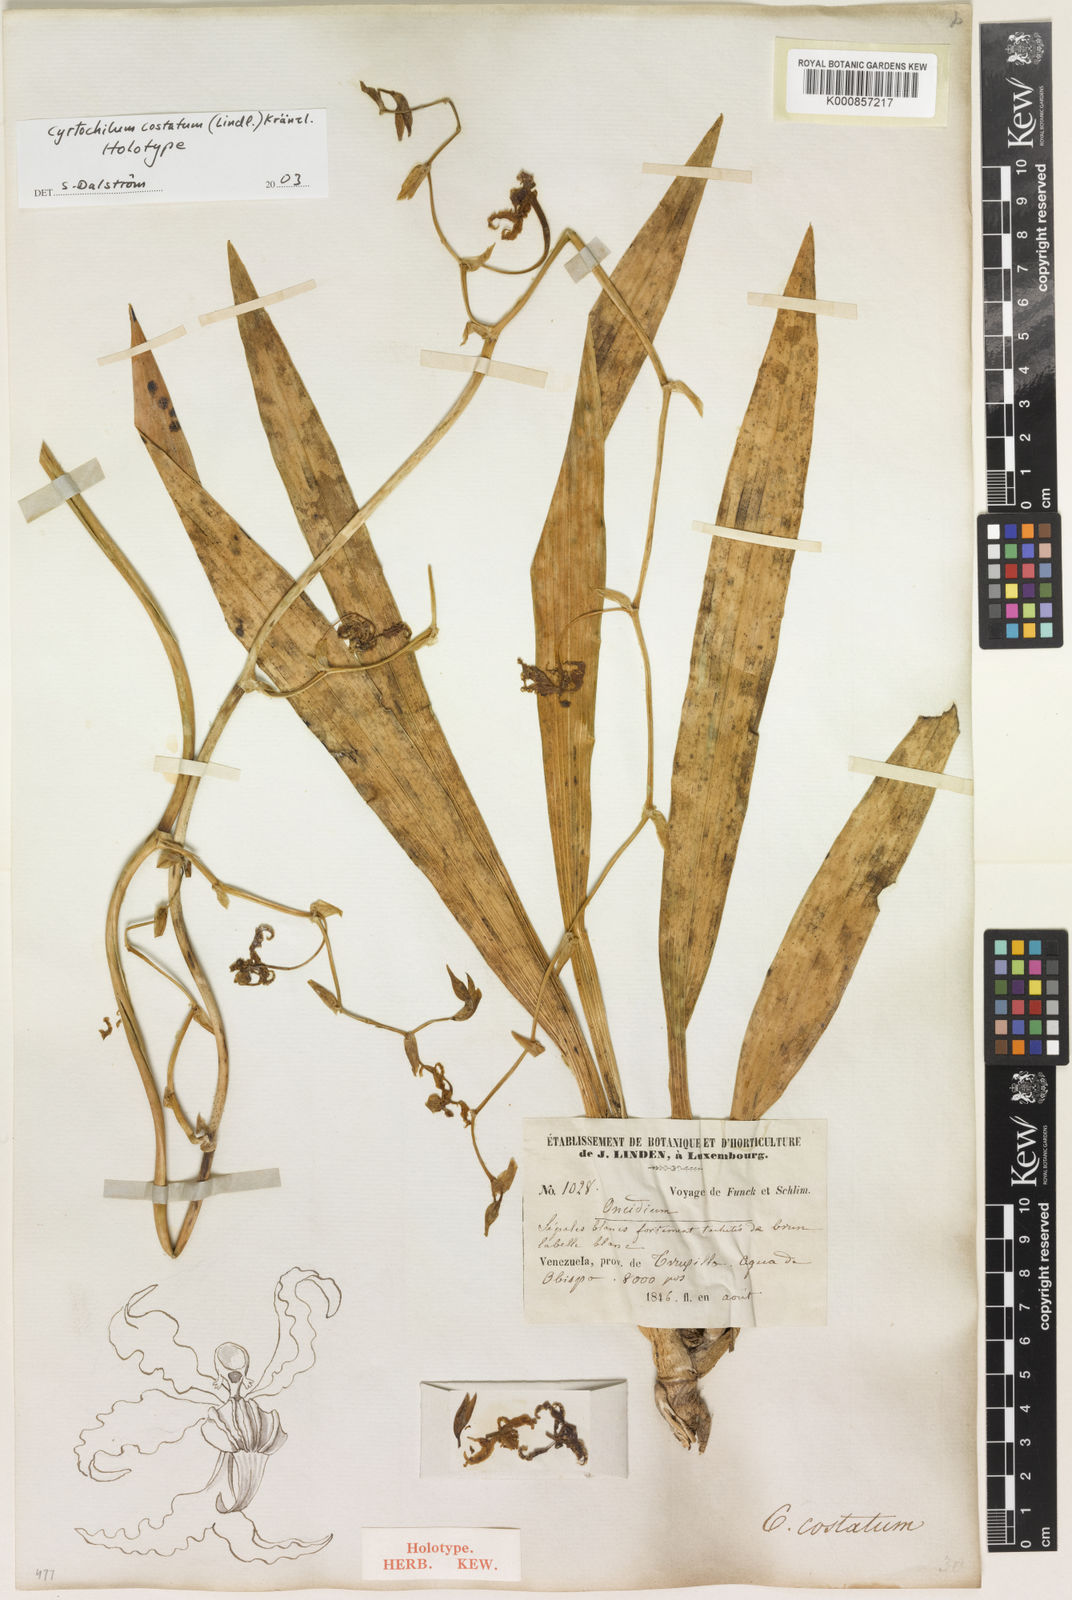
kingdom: Plantae
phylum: Tracheophyta
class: Liliopsida
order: Asparagales
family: Orchidaceae
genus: Cyrtochilum
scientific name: Cyrtochilum
